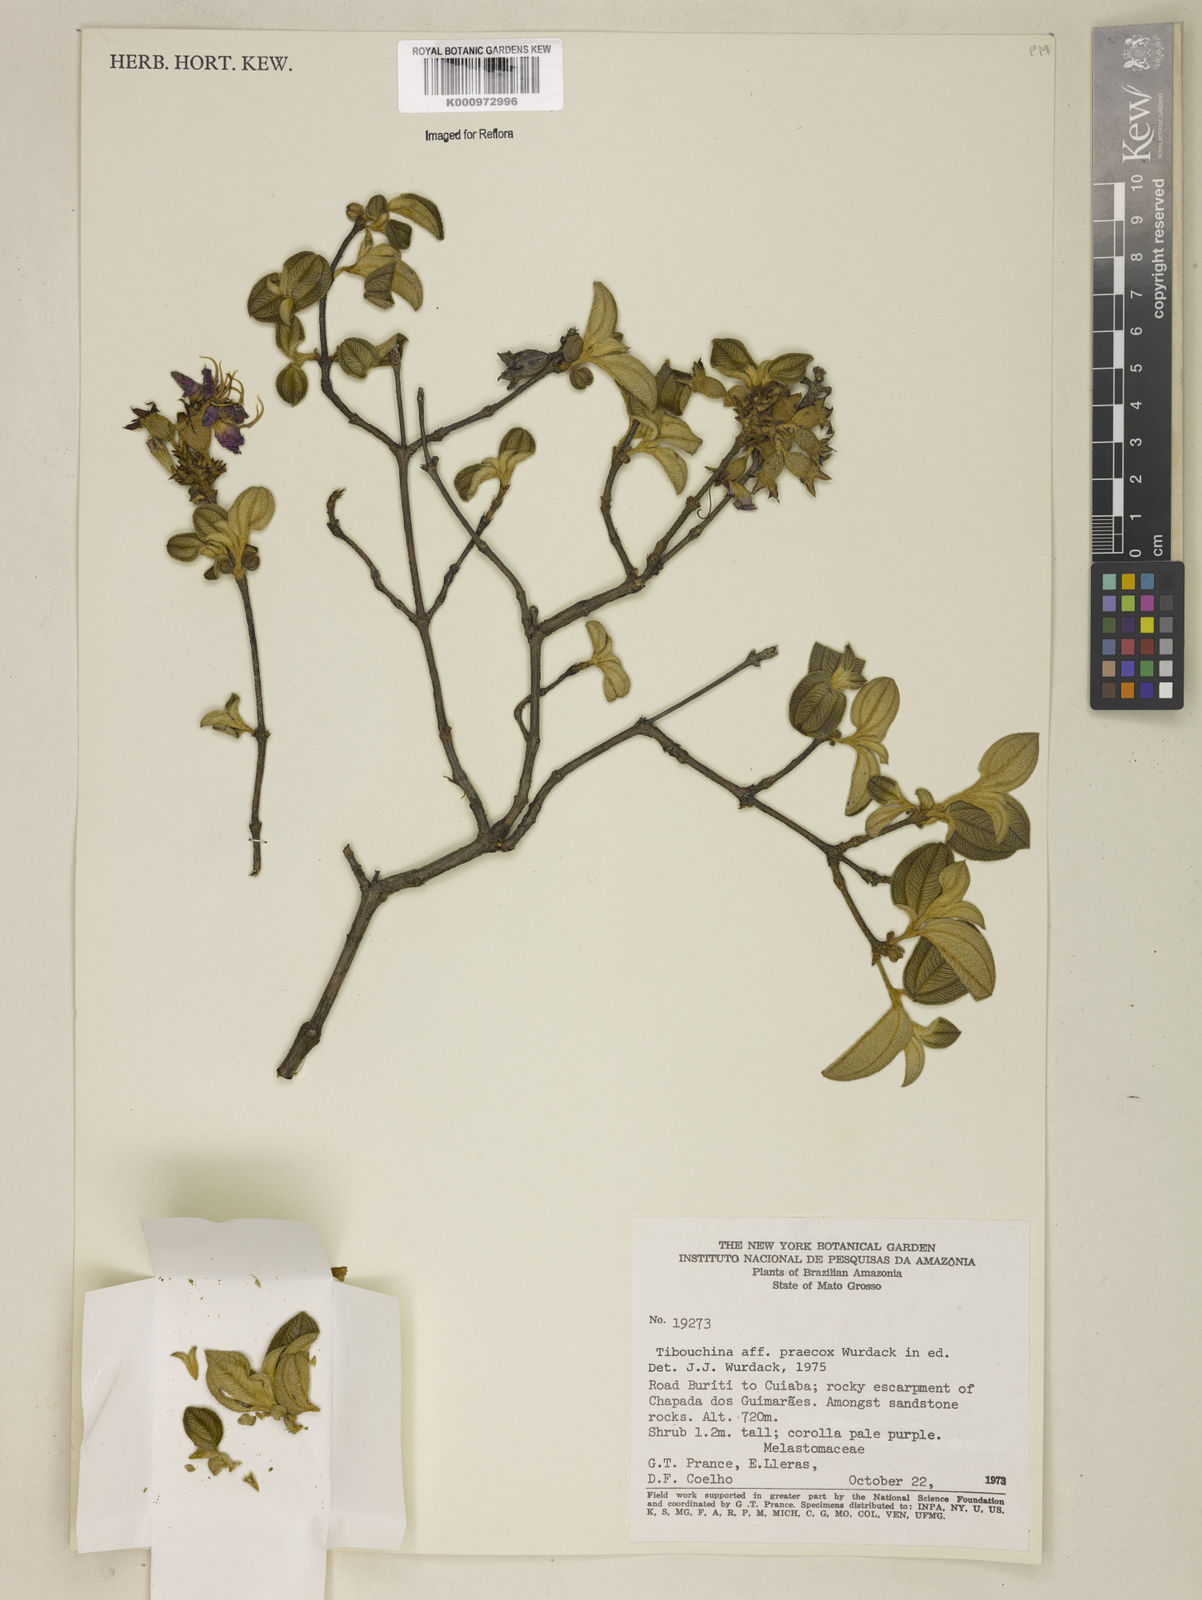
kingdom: Plantae
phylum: Tracheophyta
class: Magnoliopsida
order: Myrtales
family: Melastomataceae
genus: Tibouchina
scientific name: Tibouchina
